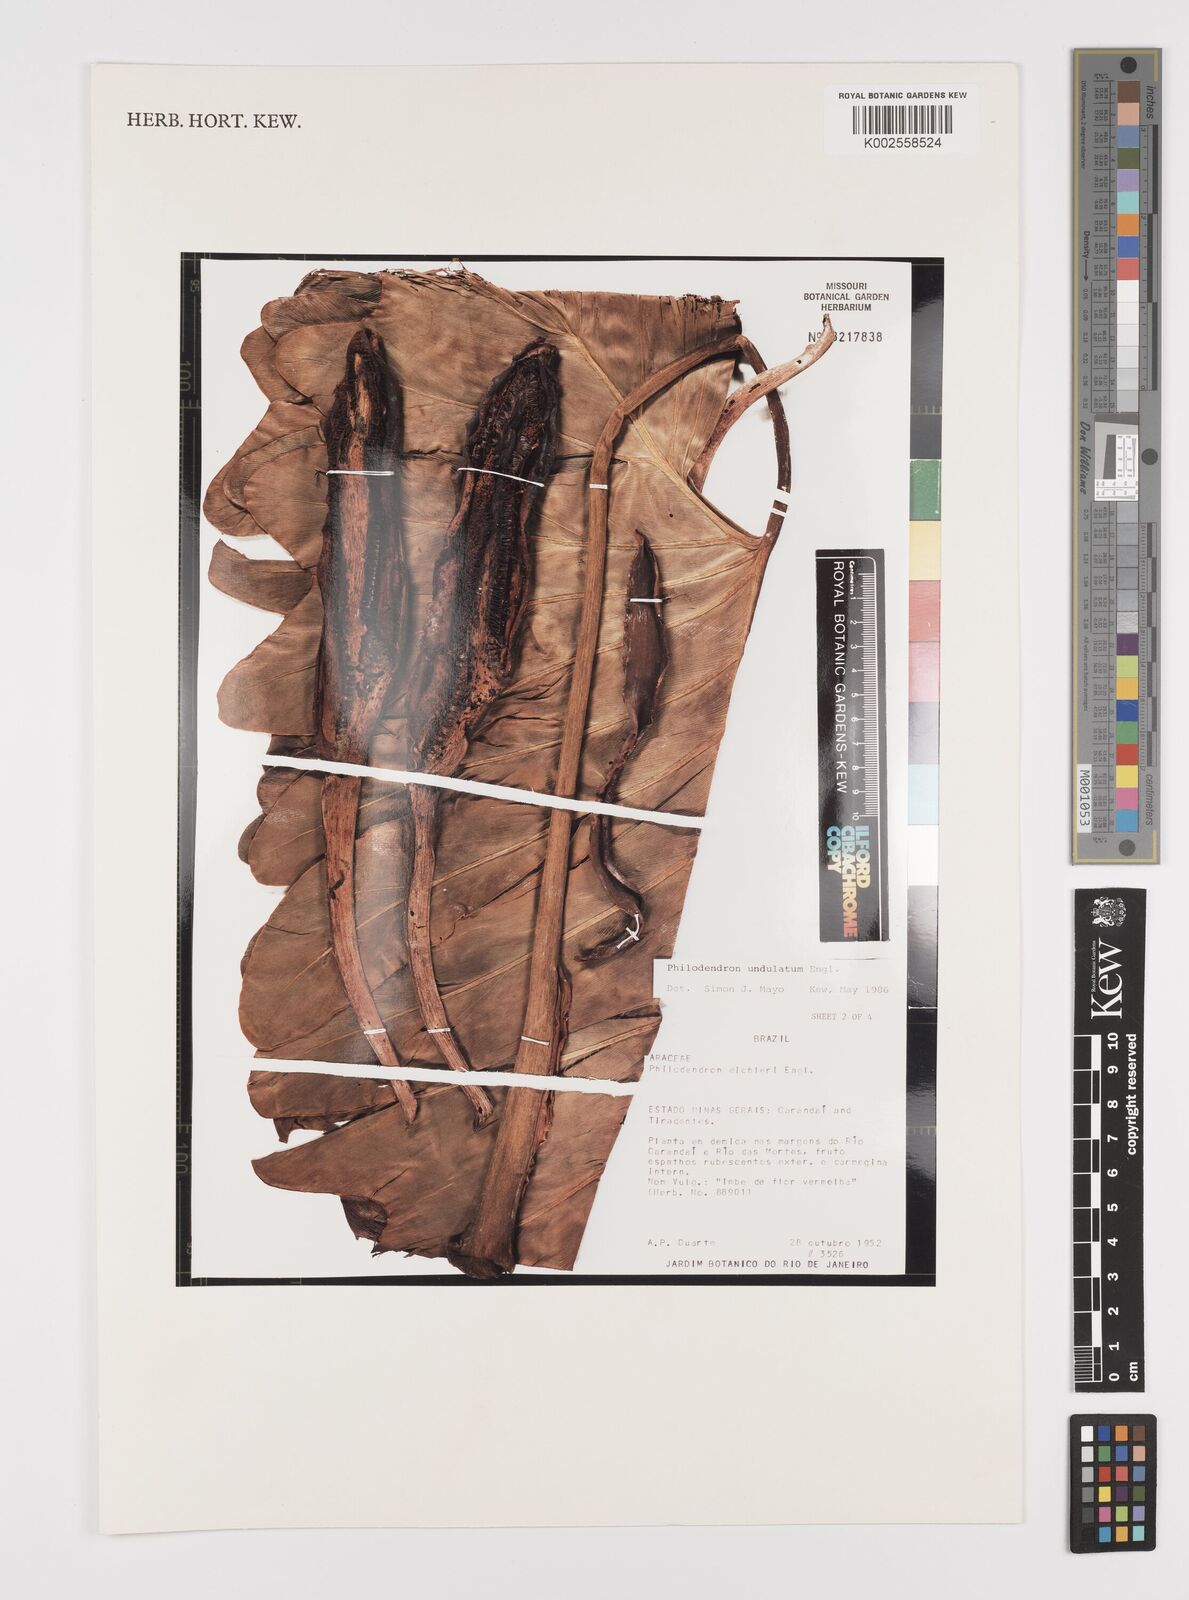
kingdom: Plantae
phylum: Tracheophyta
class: Liliopsida
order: Alismatales
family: Araceae
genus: Thaumatophyllum
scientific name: Thaumatophyllum undulatum
